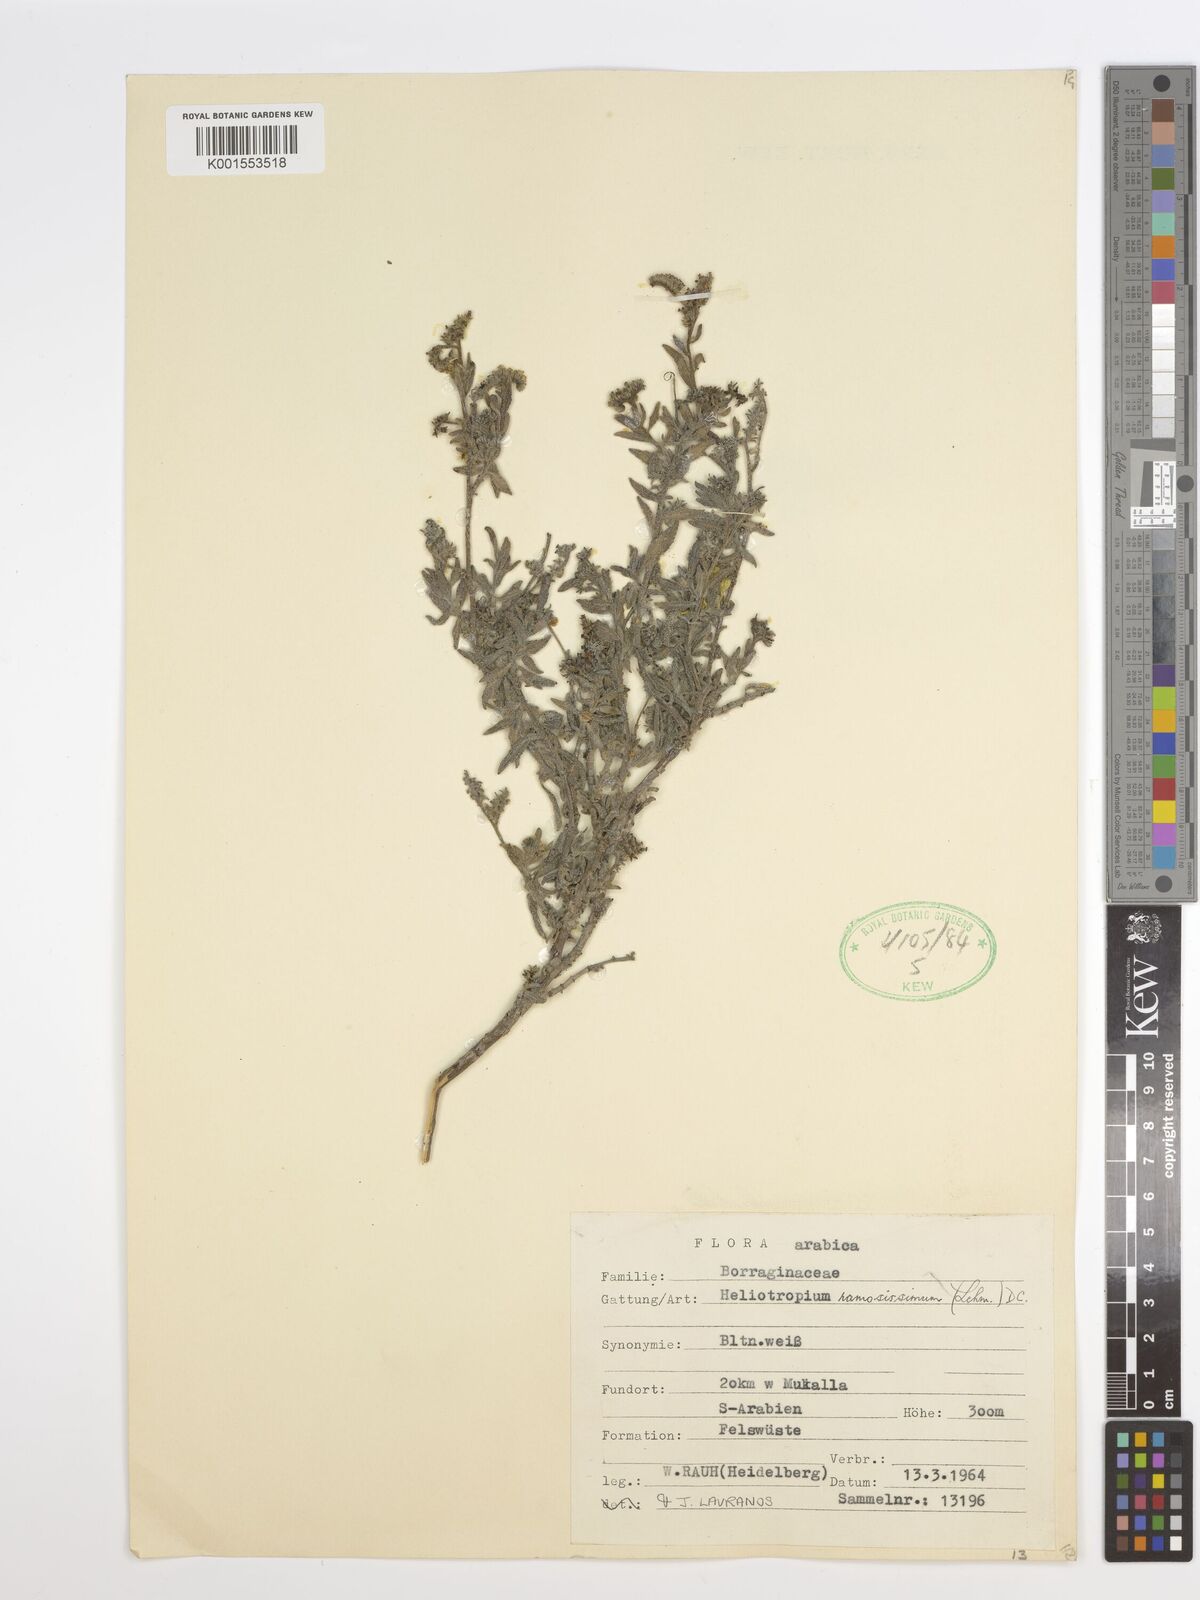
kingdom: Plantae
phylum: Tracheophyta
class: Magnoliopsida
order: Boraginales
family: Heliotropiaceae
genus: Heliotropium
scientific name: Heliotropium ramosissimum
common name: Wavy heliotrope
